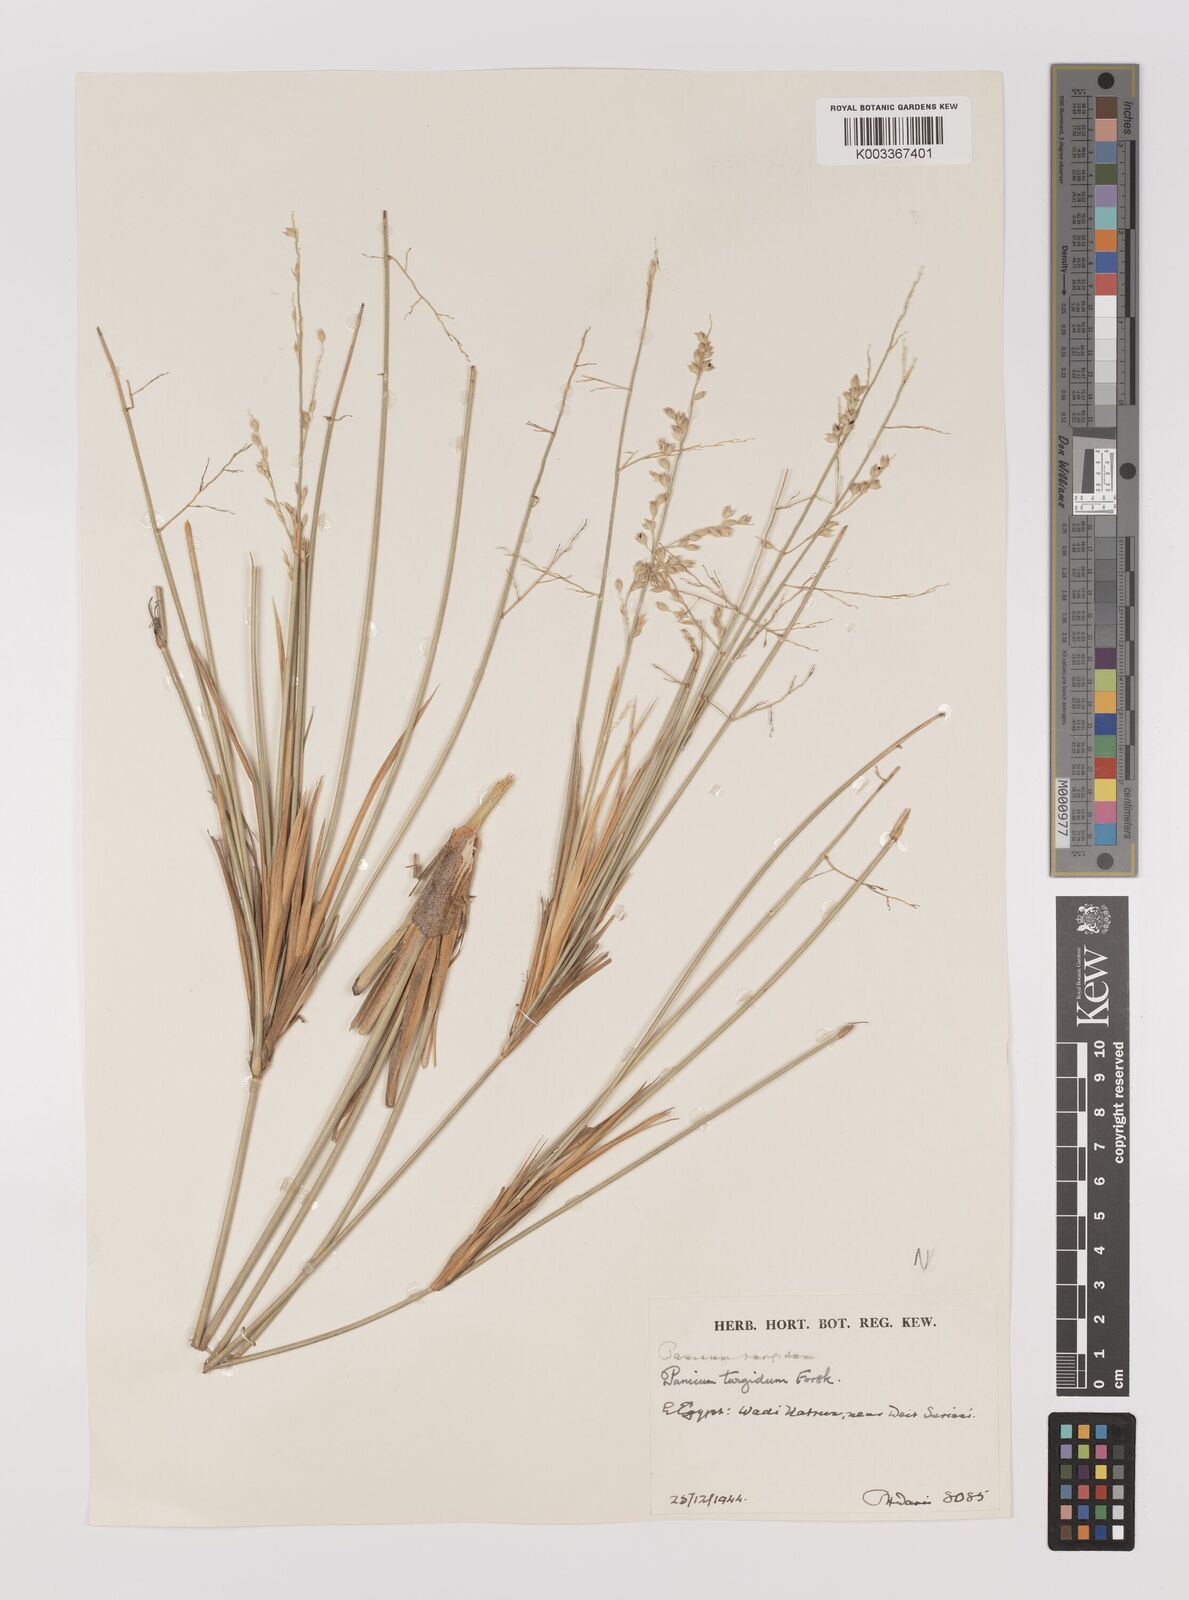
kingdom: Plantae
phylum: Tracheophyta
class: Liliopsida
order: Poales
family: Poaceae
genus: Panicum
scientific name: Panicum turgidum
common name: Desert grass
